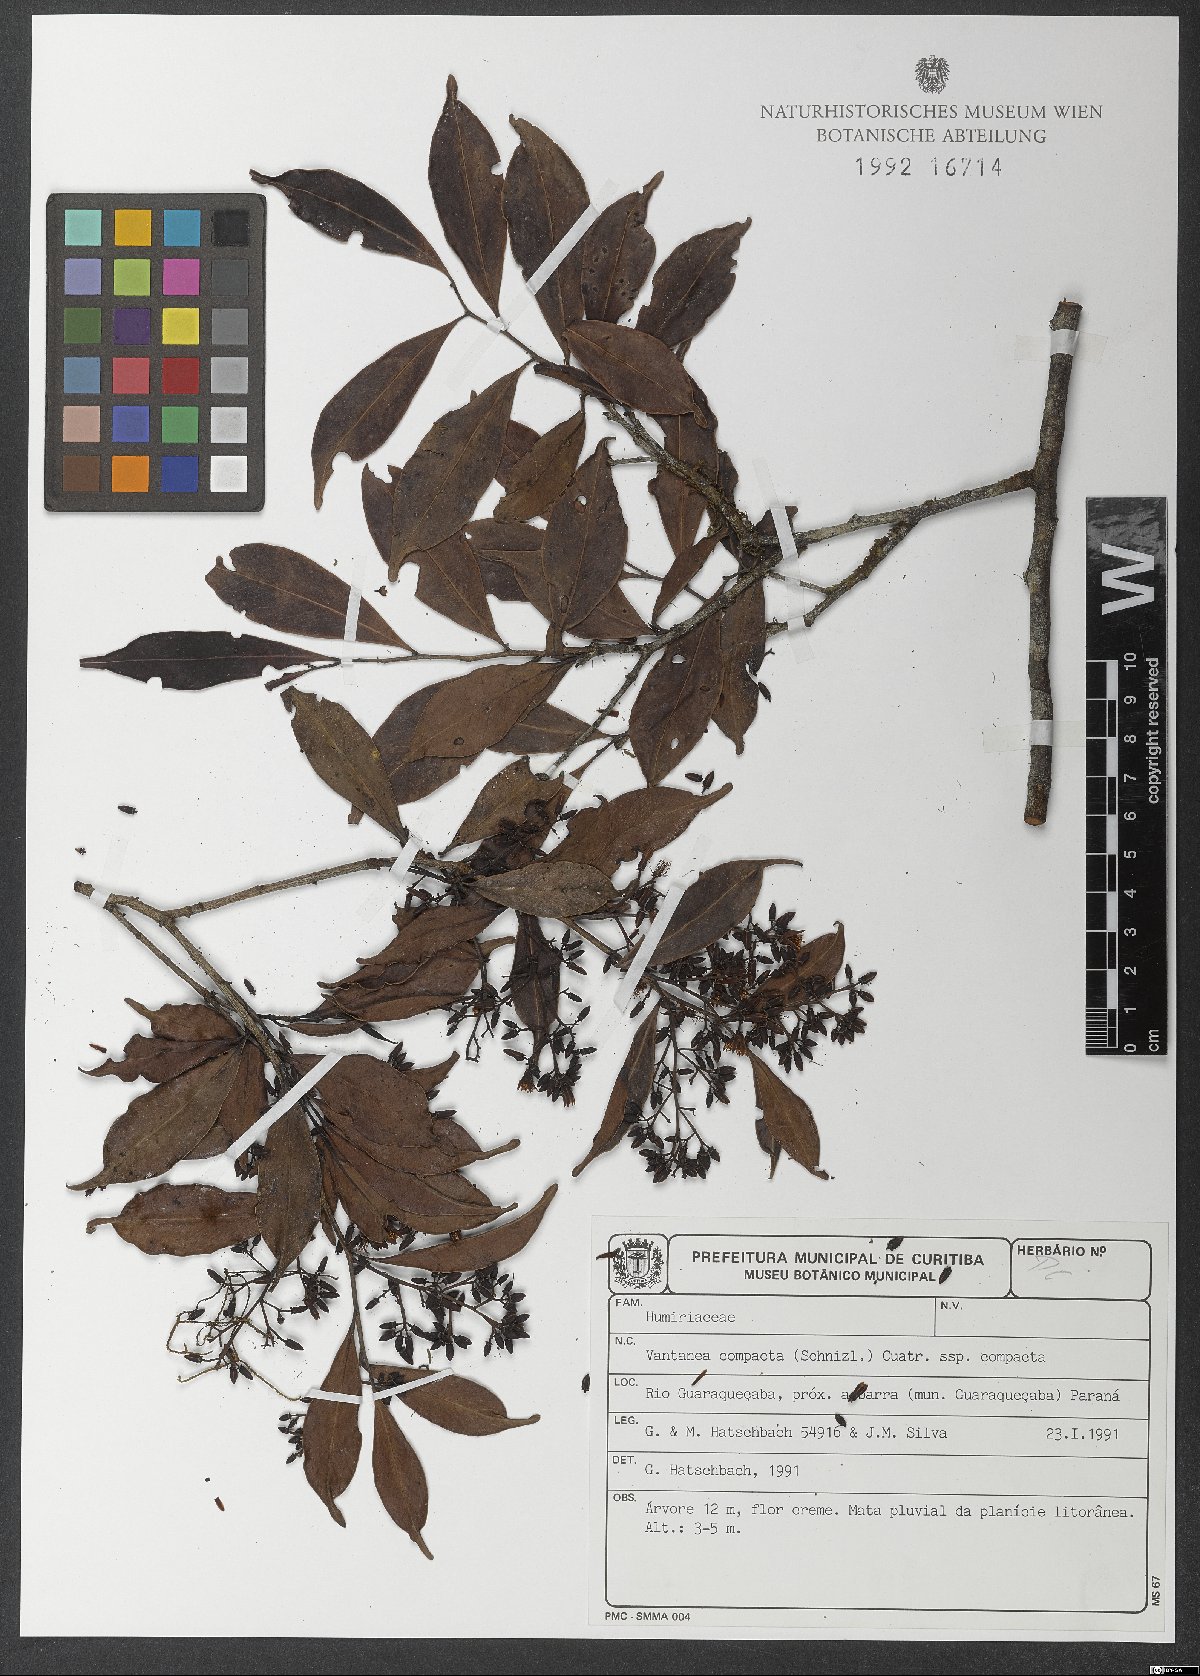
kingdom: Plantae
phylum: Tracheophyta
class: Magnoliopsida
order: Malpighiales
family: Humiriaceae
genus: Vantanea
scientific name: Vantanea compacta
